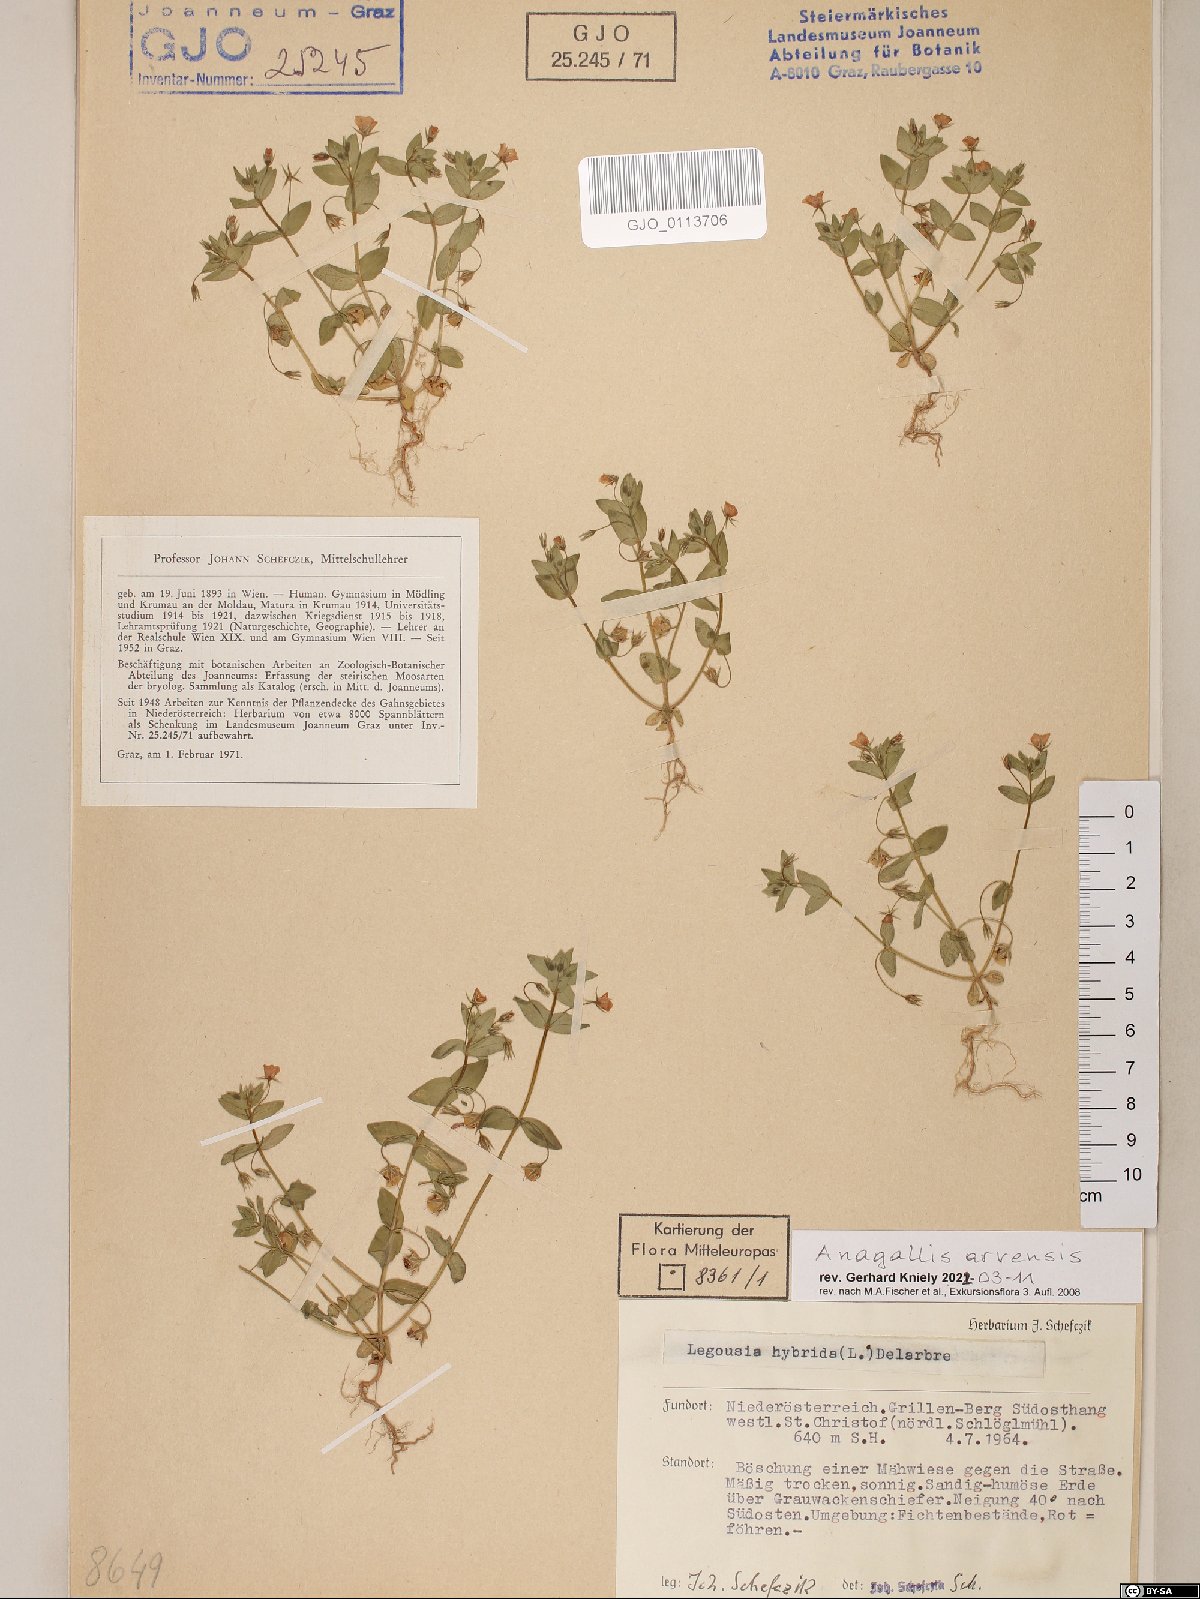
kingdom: Plantae
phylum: Tracheophyta
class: Magnoliopsida
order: Ericales
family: Primulaceae
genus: Lysimachia
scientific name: Lysimachia arvensis
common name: Scarlet pimpernel
